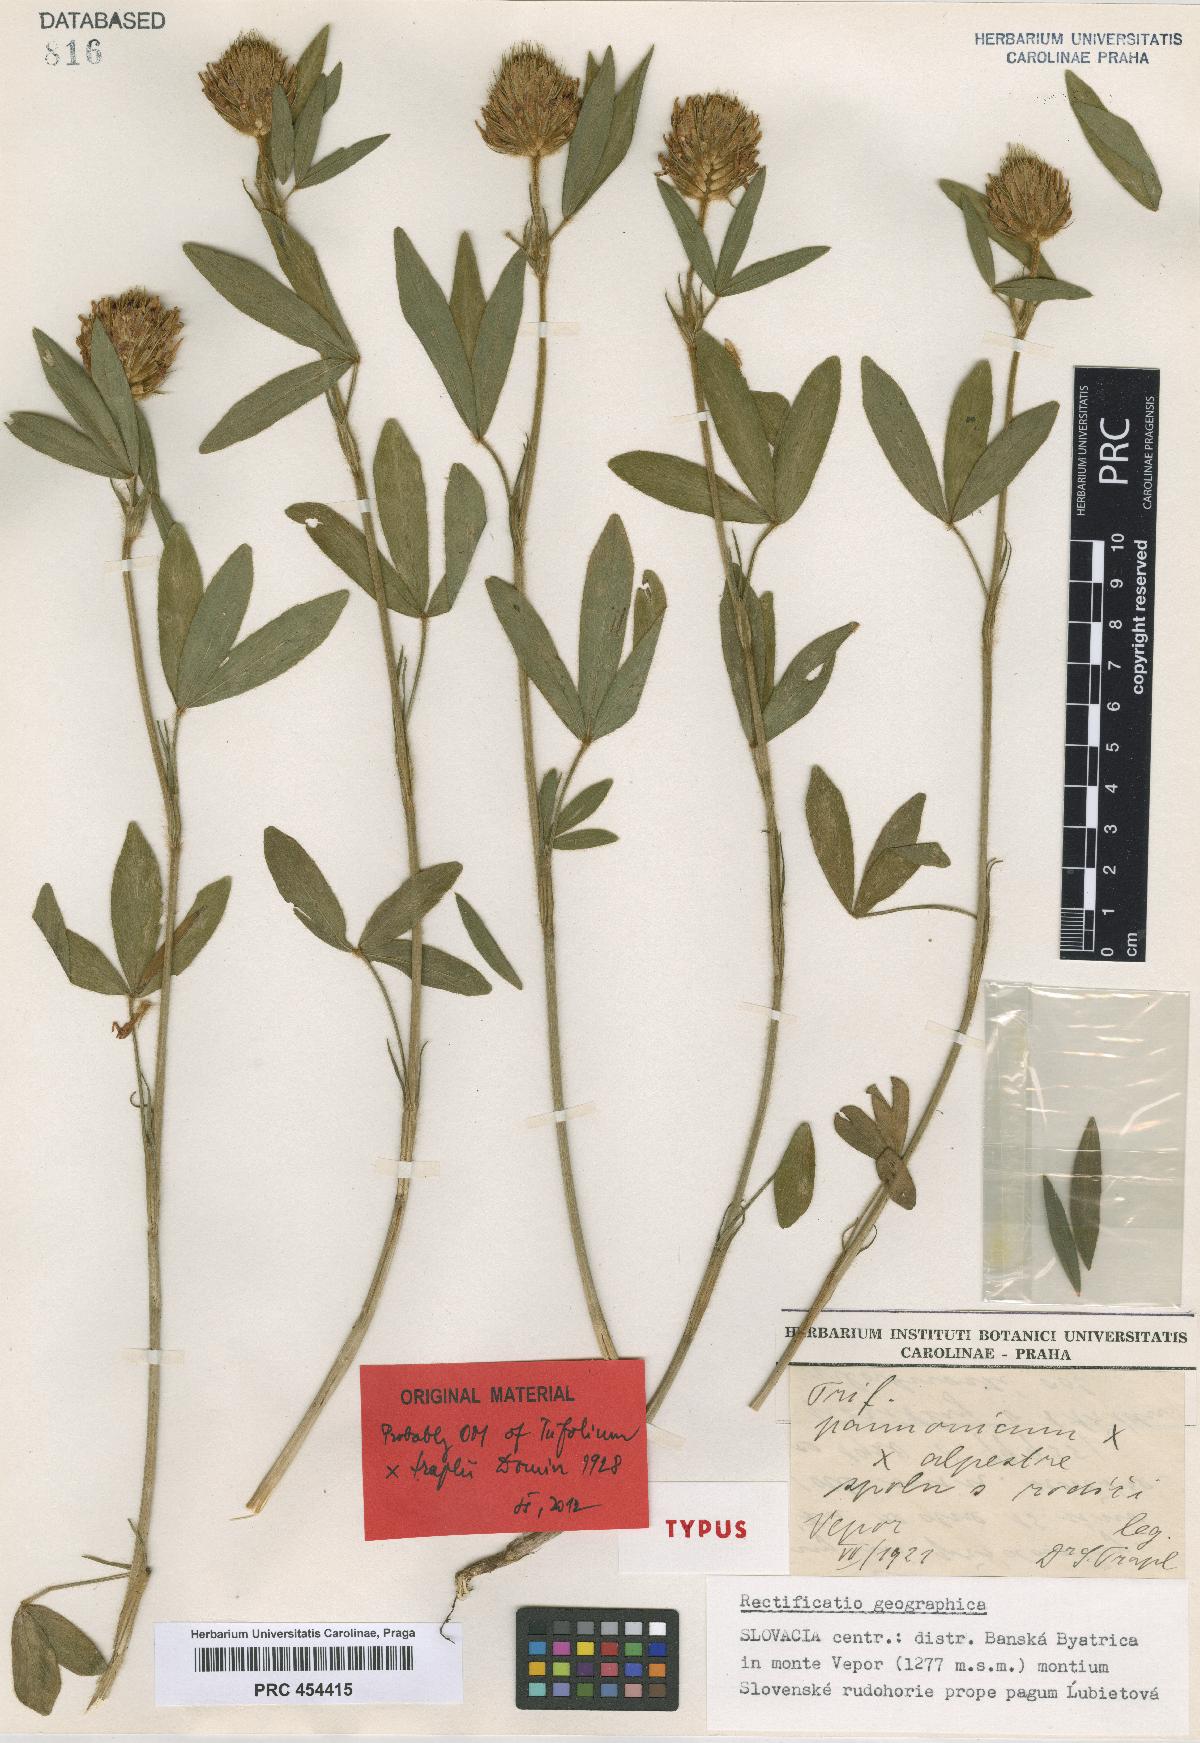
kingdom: Plantae
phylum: Tracheophyta
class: Magnoliopsida
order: Fabales
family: Fabaceae
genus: Trifolium
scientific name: Trifolium traplii
